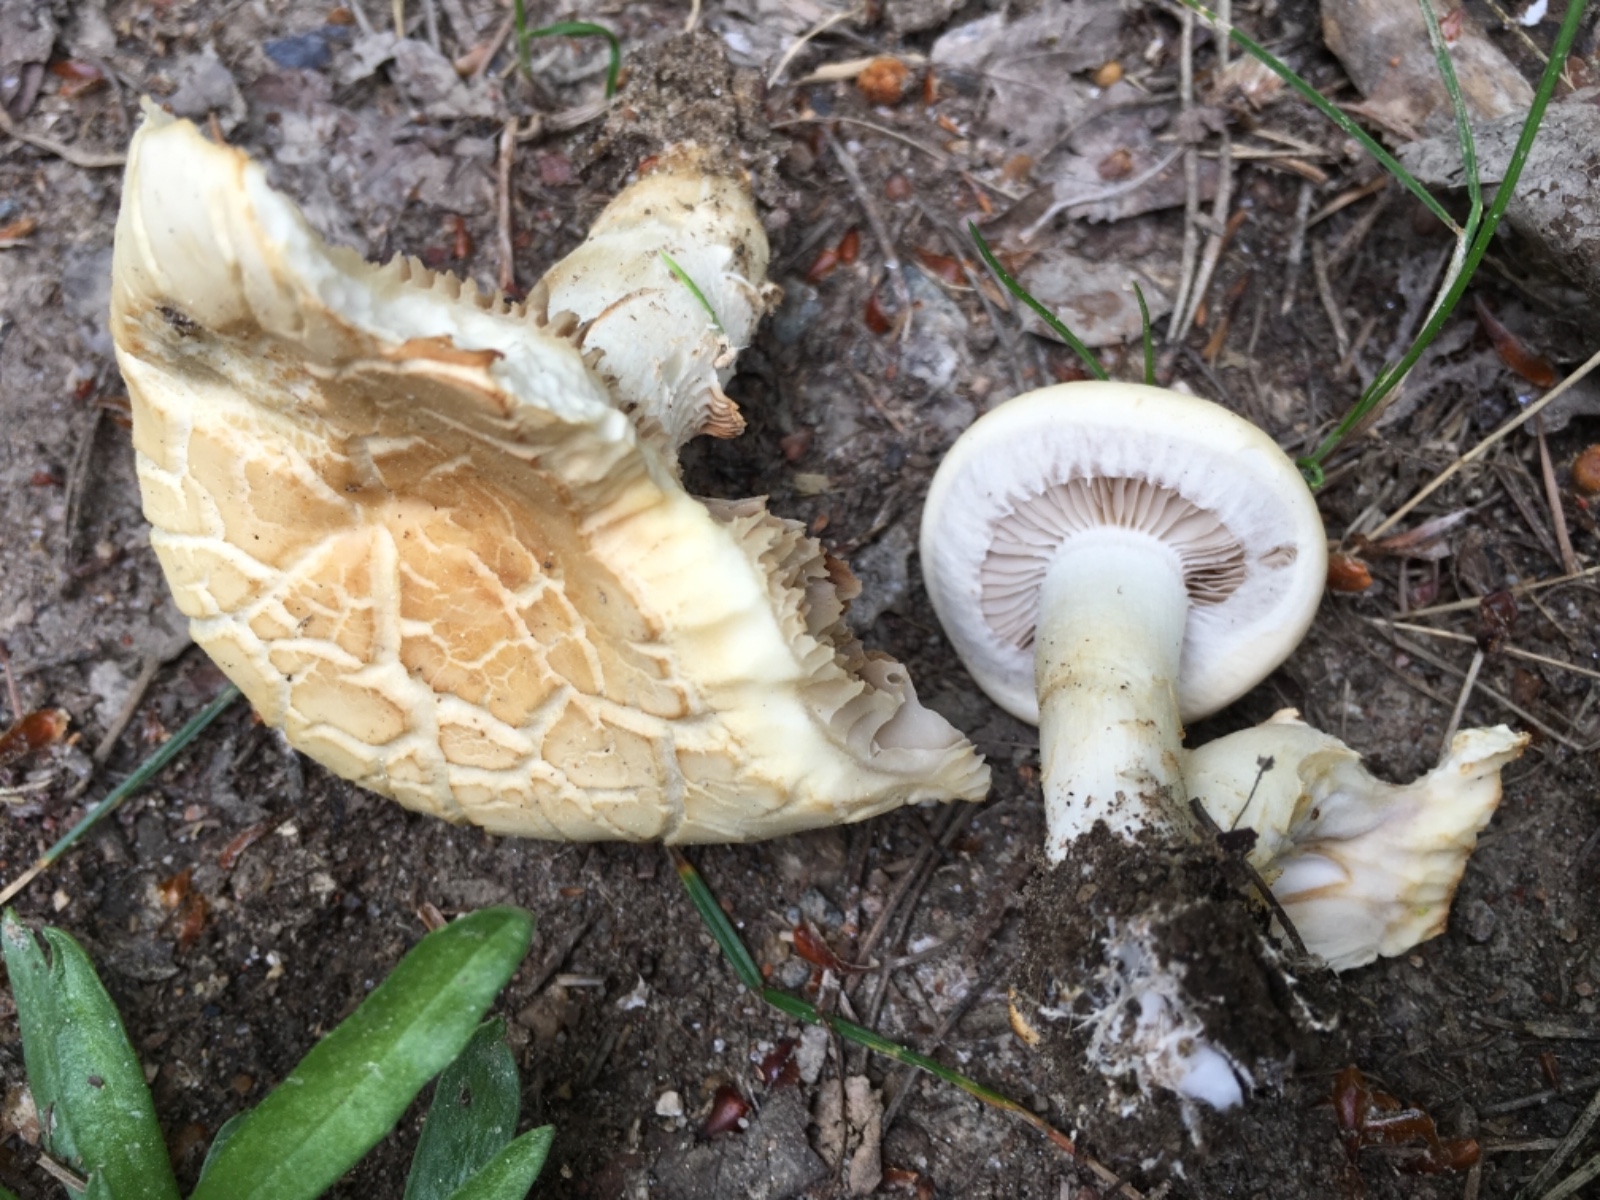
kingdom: Fungi
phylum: Basidiomycota
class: Agaricomycetes
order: Agaricales
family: Strophariaceae
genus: Agrocybe
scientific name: Agrocybe praecox
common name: tidlig agerhat
